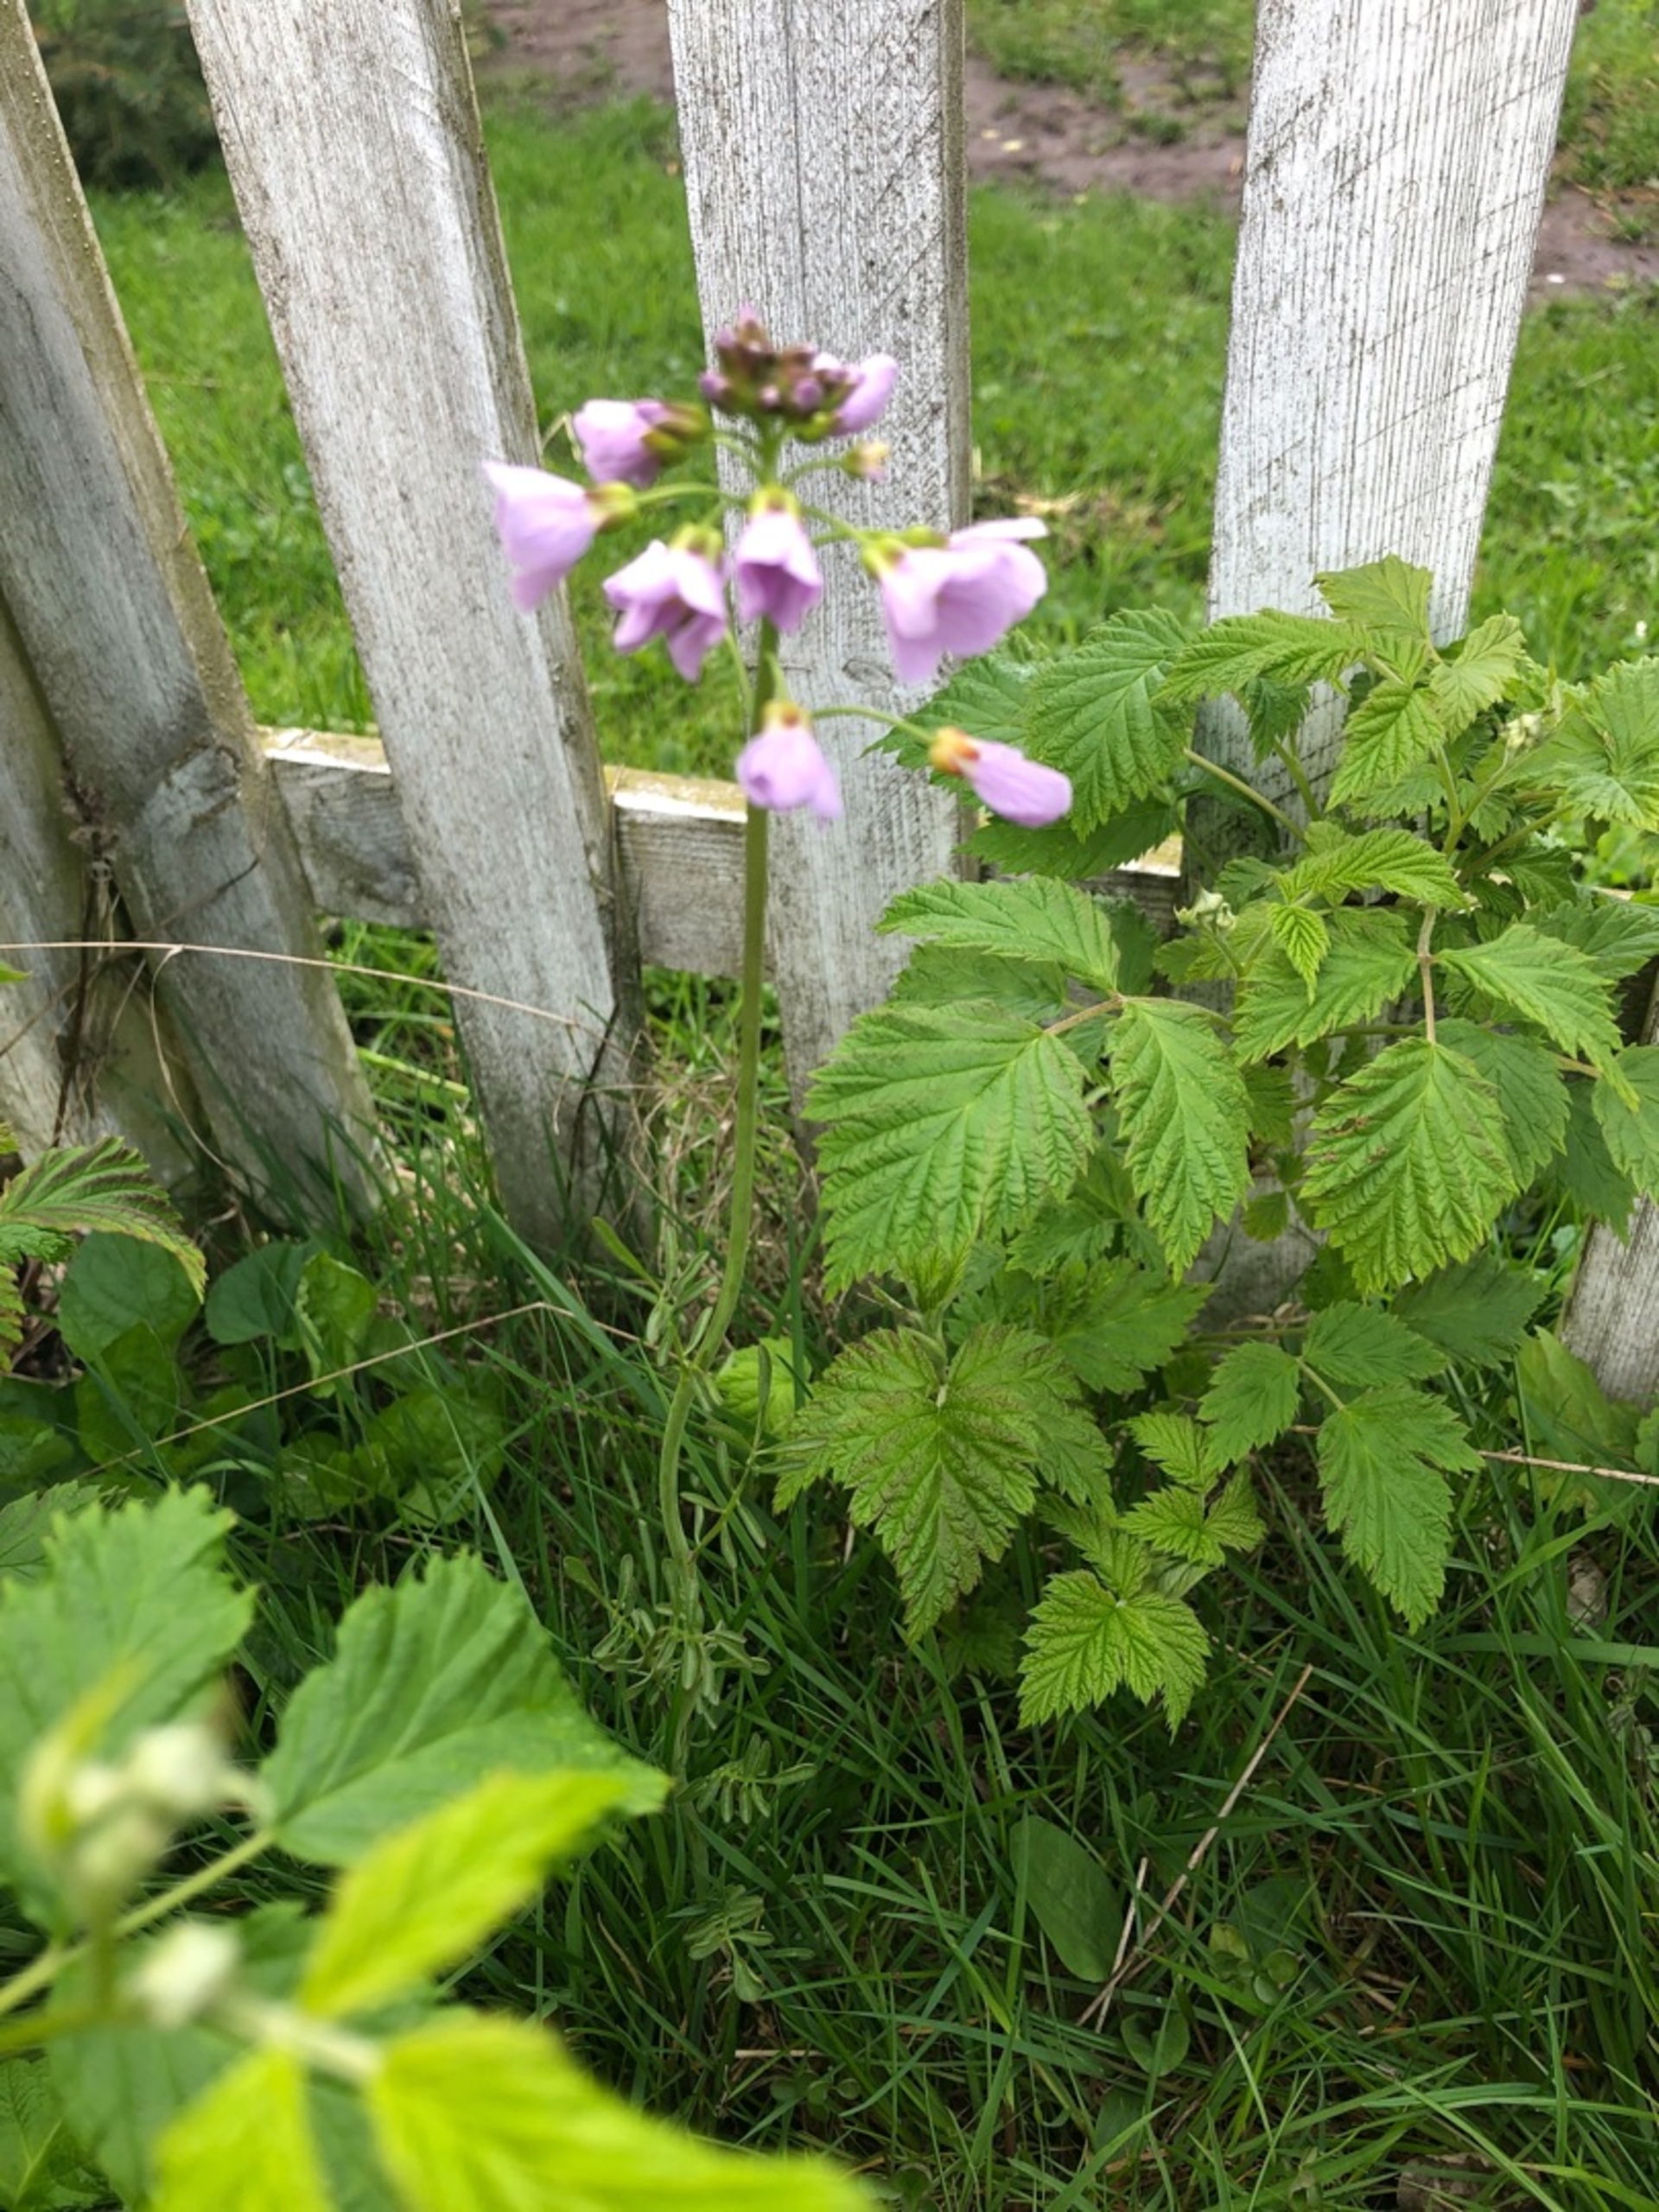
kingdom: Plantae
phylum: Tracheophyta
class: Magnoliopsida
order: Brassicales
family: Brassicaceae
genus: Cardamine
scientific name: Cardamine pratensis
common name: Engkarse
